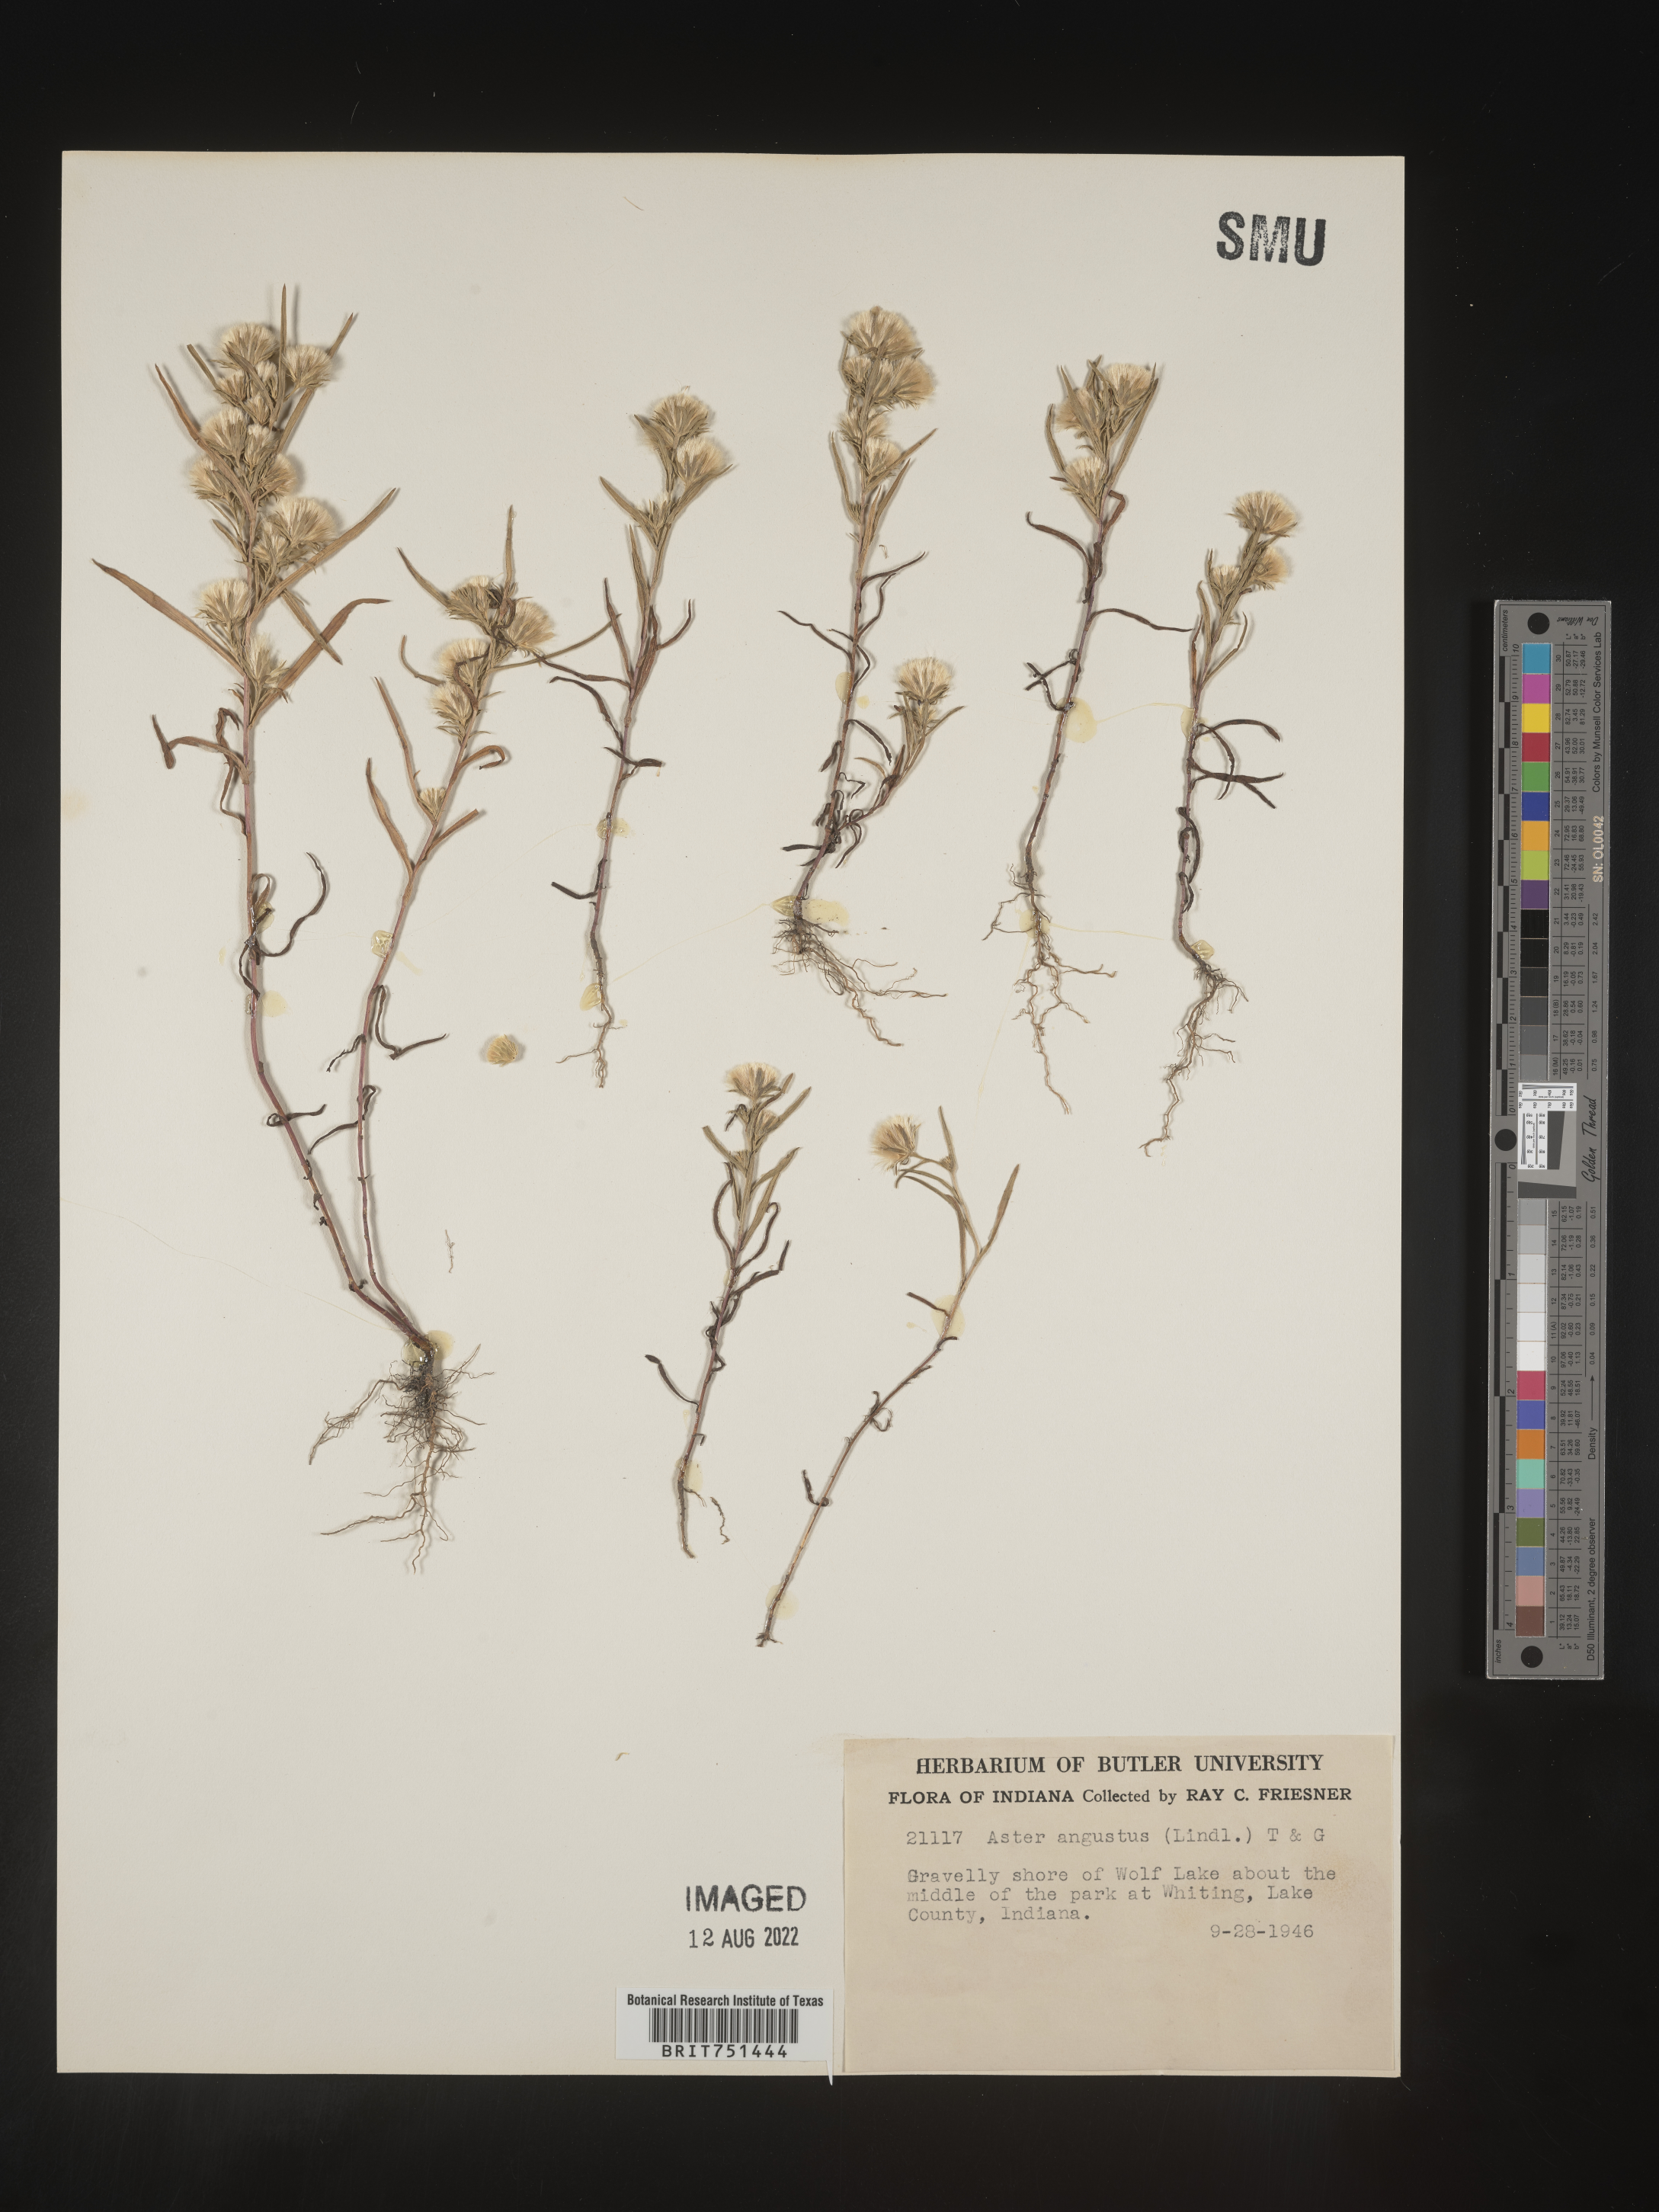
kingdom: Plantae
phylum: Tracheophyta
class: Magnoliopsida
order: Asterales
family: Asteraceae
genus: Symphyotrichum
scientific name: Symphyotrichum ciliatum
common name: Rayless annual aster
